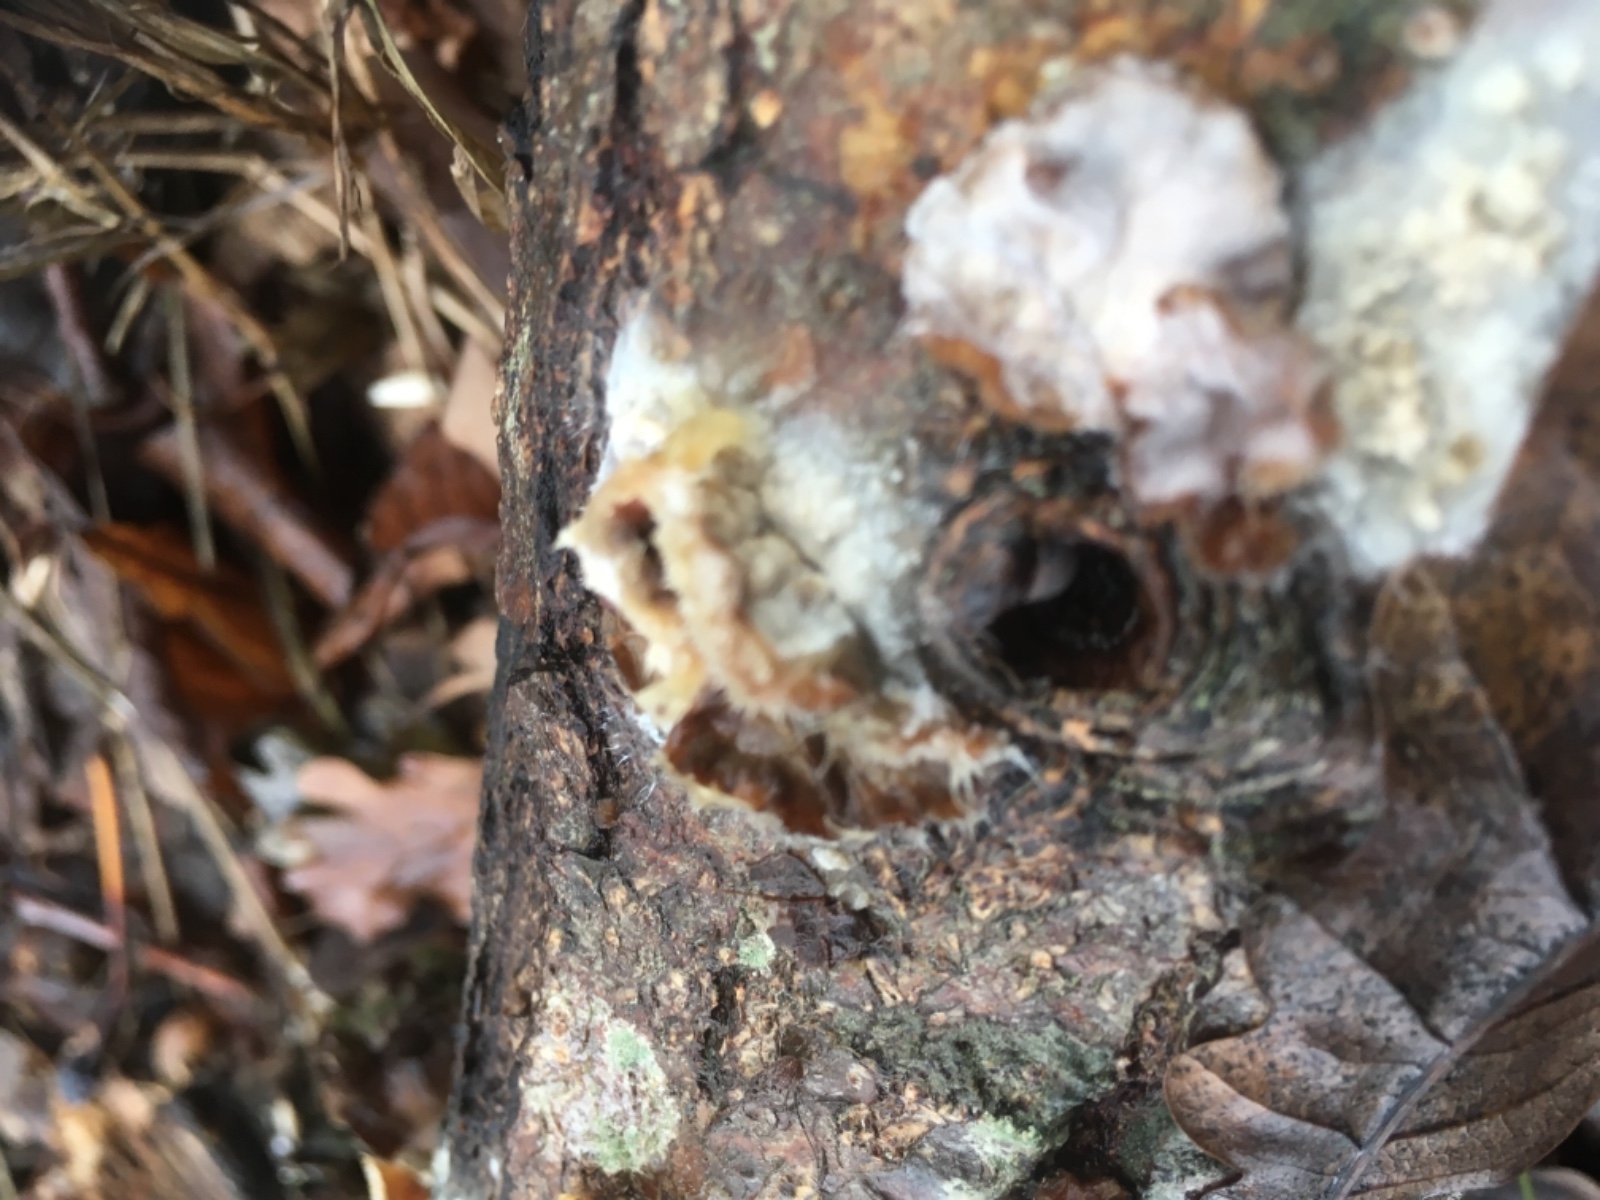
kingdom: Fungi
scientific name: Fungi
